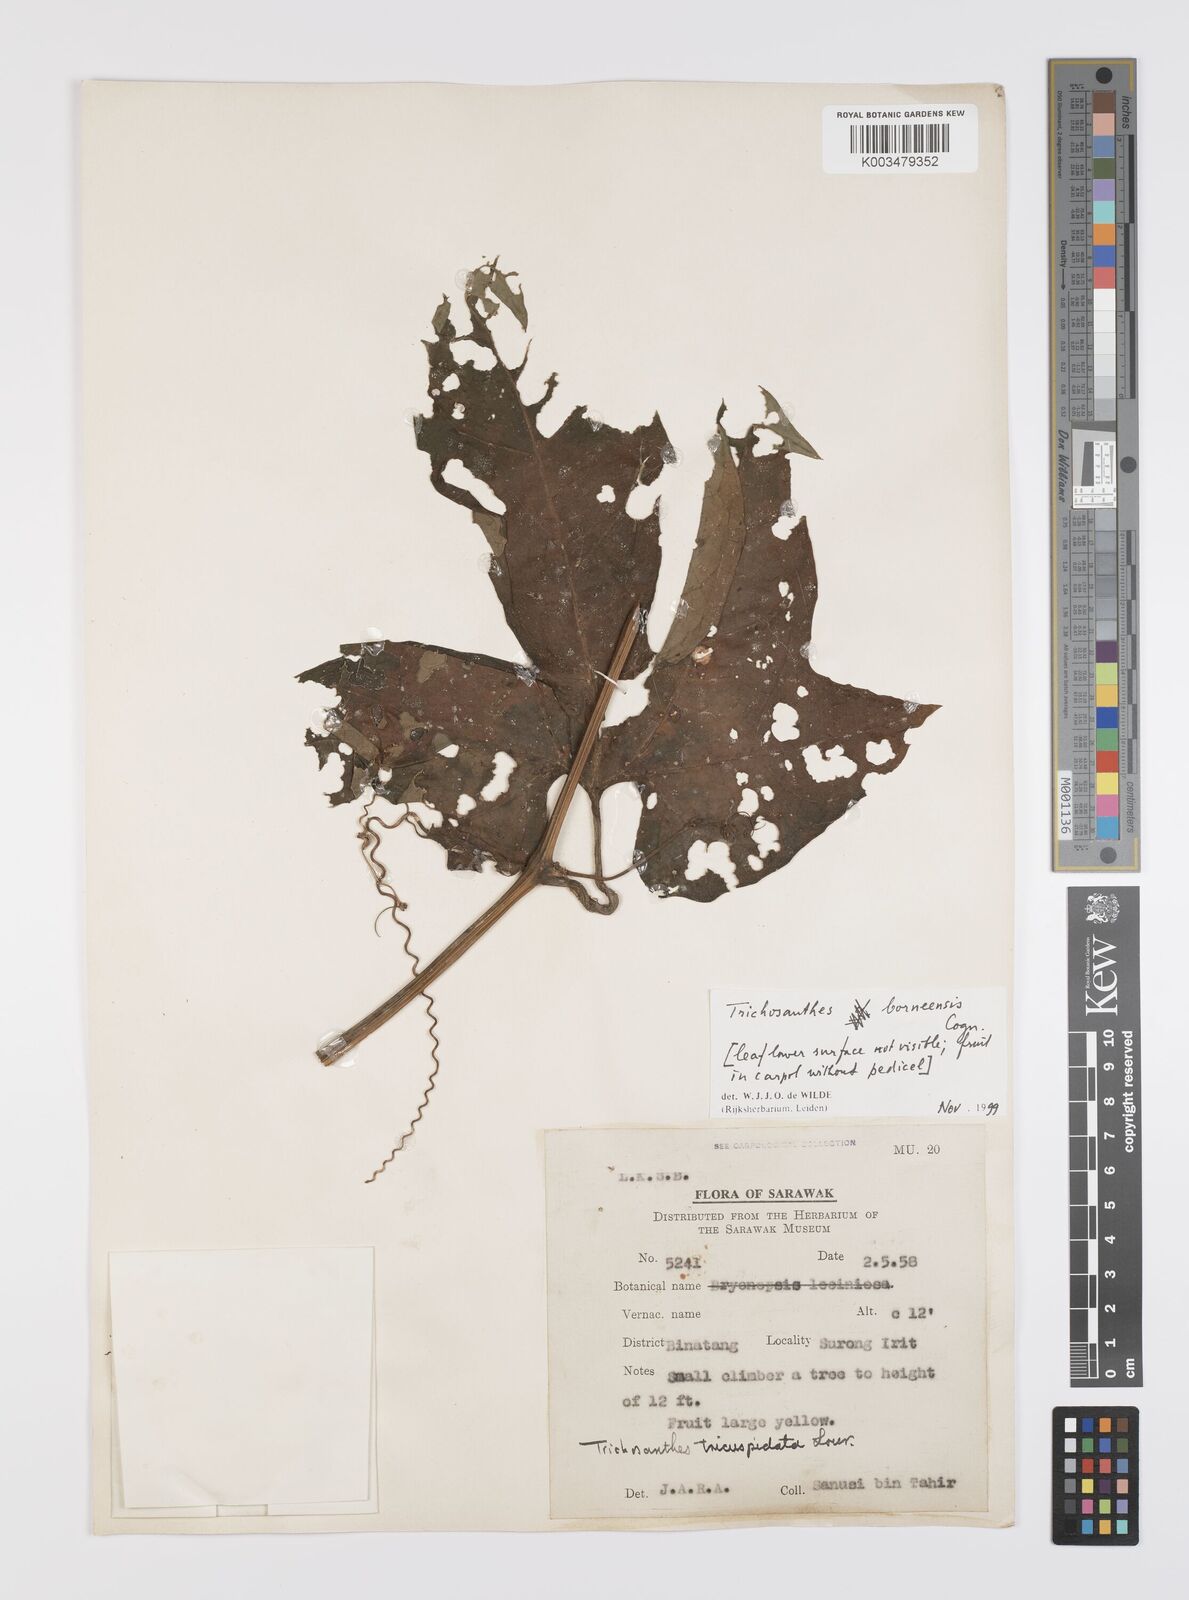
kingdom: Plantae
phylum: Tracheophyta
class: Magnoliopsida
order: Cucurbitales
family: Cucurbitaceae
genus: Trichosanthes
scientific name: Trichosanthes borneensis
